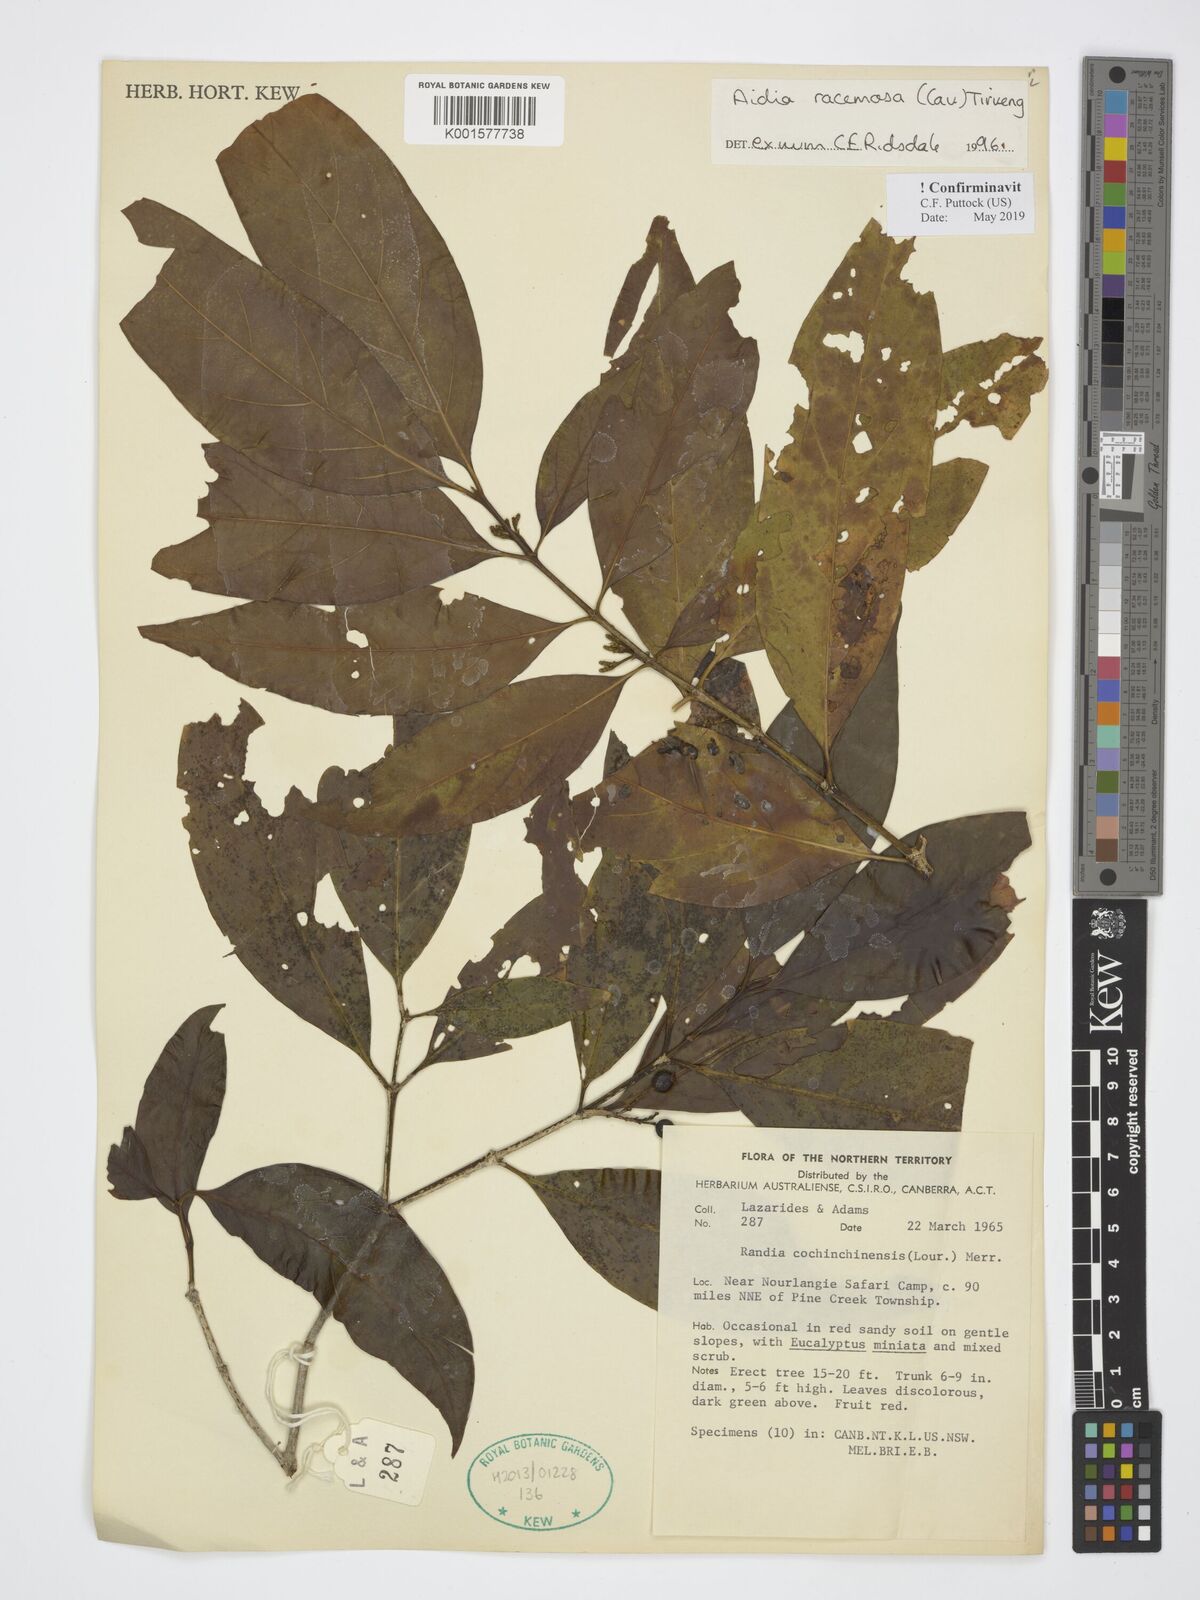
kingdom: Plantae
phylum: Tracheophyta
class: Magnoliopsida
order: Gentianales
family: Rubiaceae
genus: Aidia
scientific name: Aidia racemosa
